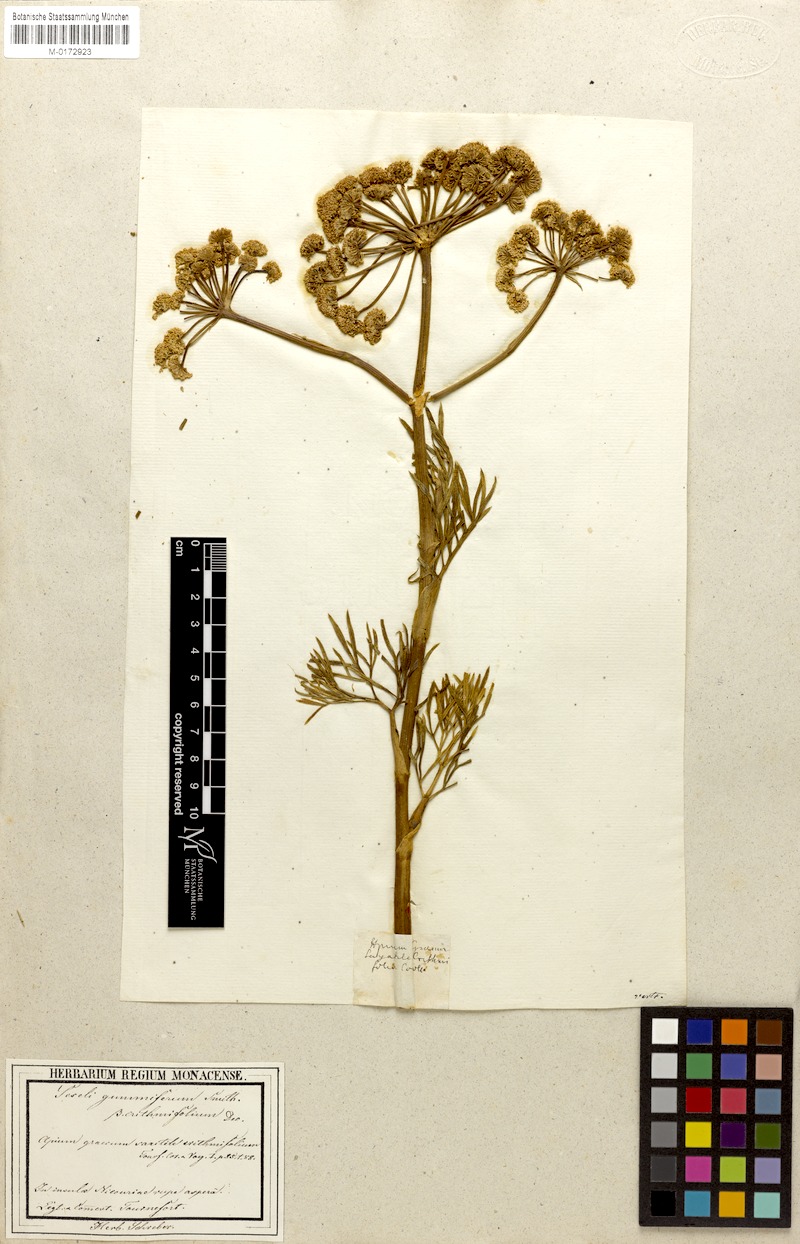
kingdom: Plantae
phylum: Tracheophyta
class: Magnoliopsida
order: Apiales
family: Apiaceae
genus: Seseli
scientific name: Seseli crithmifolium
